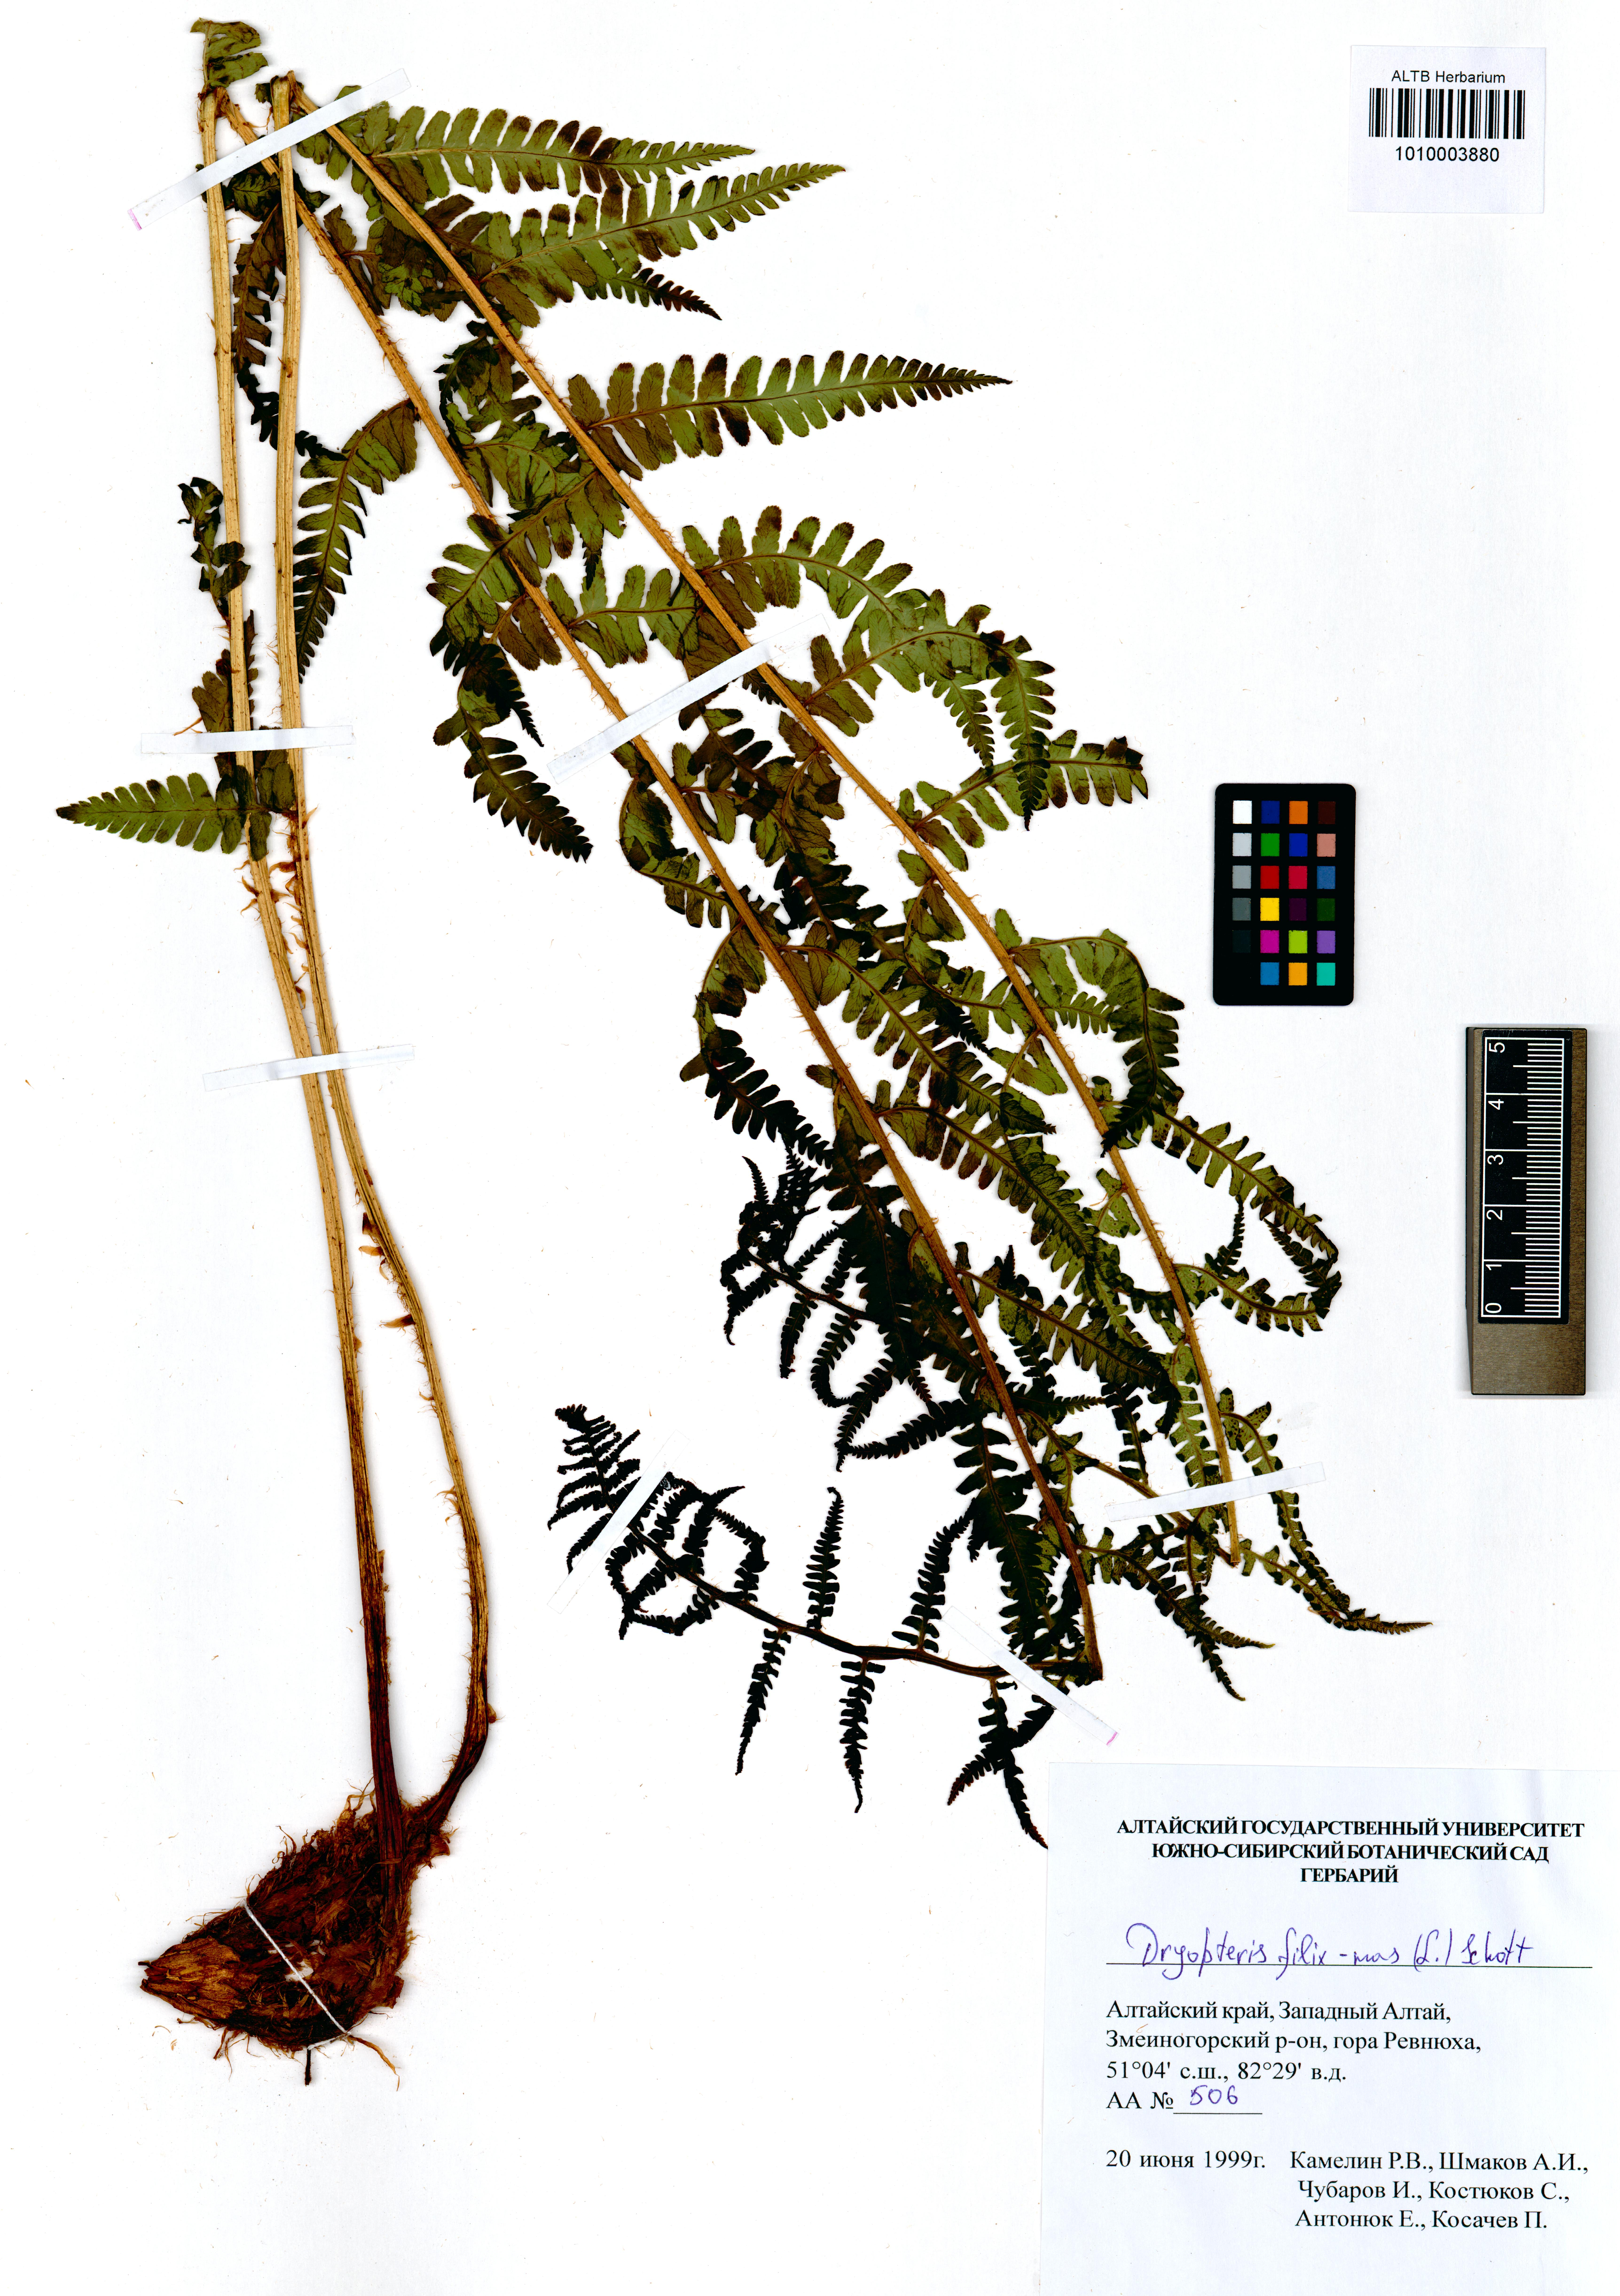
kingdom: Plantae
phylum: Tracheophyta
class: Polypodiopsida
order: Polypodiales
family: Dryopteridaceae
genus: Dryopteris
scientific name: Dryopteris filix-mas
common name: Male fern
